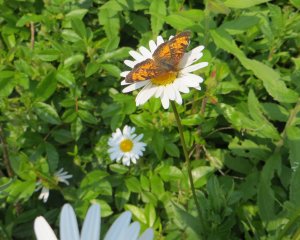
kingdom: Animalia
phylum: Arthropoda
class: Insecta
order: Lepidoptera
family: Nymphalidae
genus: Phyciodes
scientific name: Phyciodes tharos
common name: Northern Crescent
